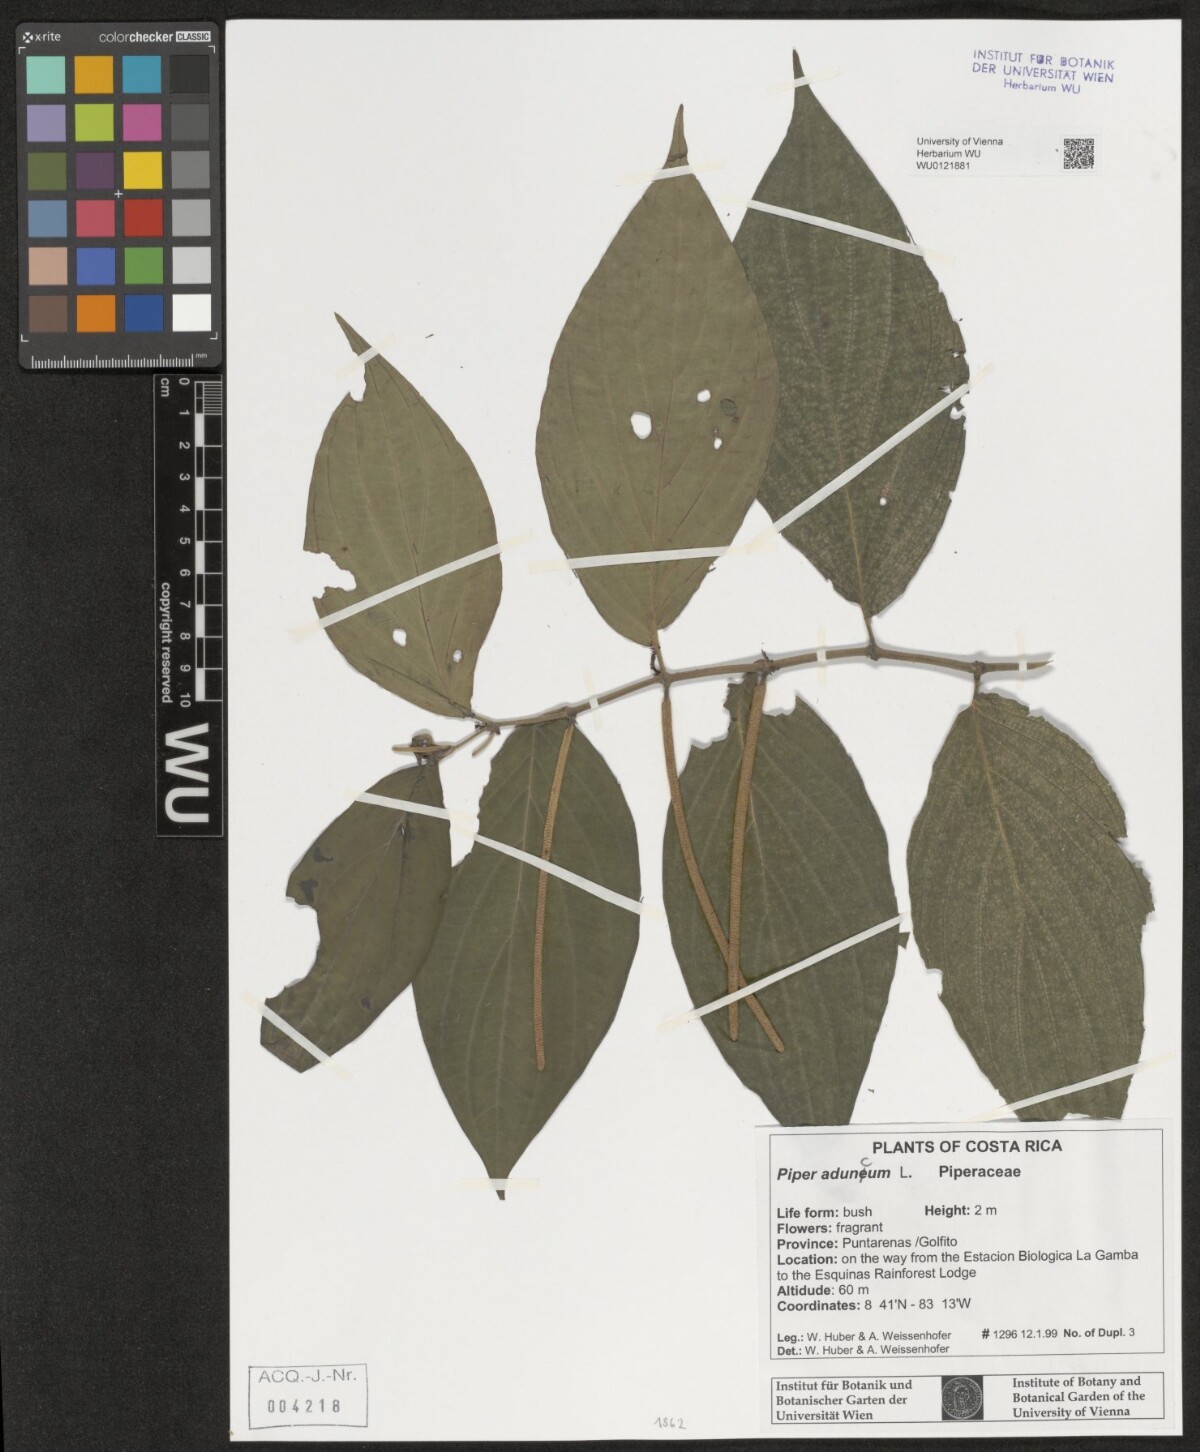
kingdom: Plantae
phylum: Tracheophyta
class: Magnoliopsida
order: Piperales
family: Piperaceae
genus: Piper
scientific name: Piper aduncum
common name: Spiked pepper
